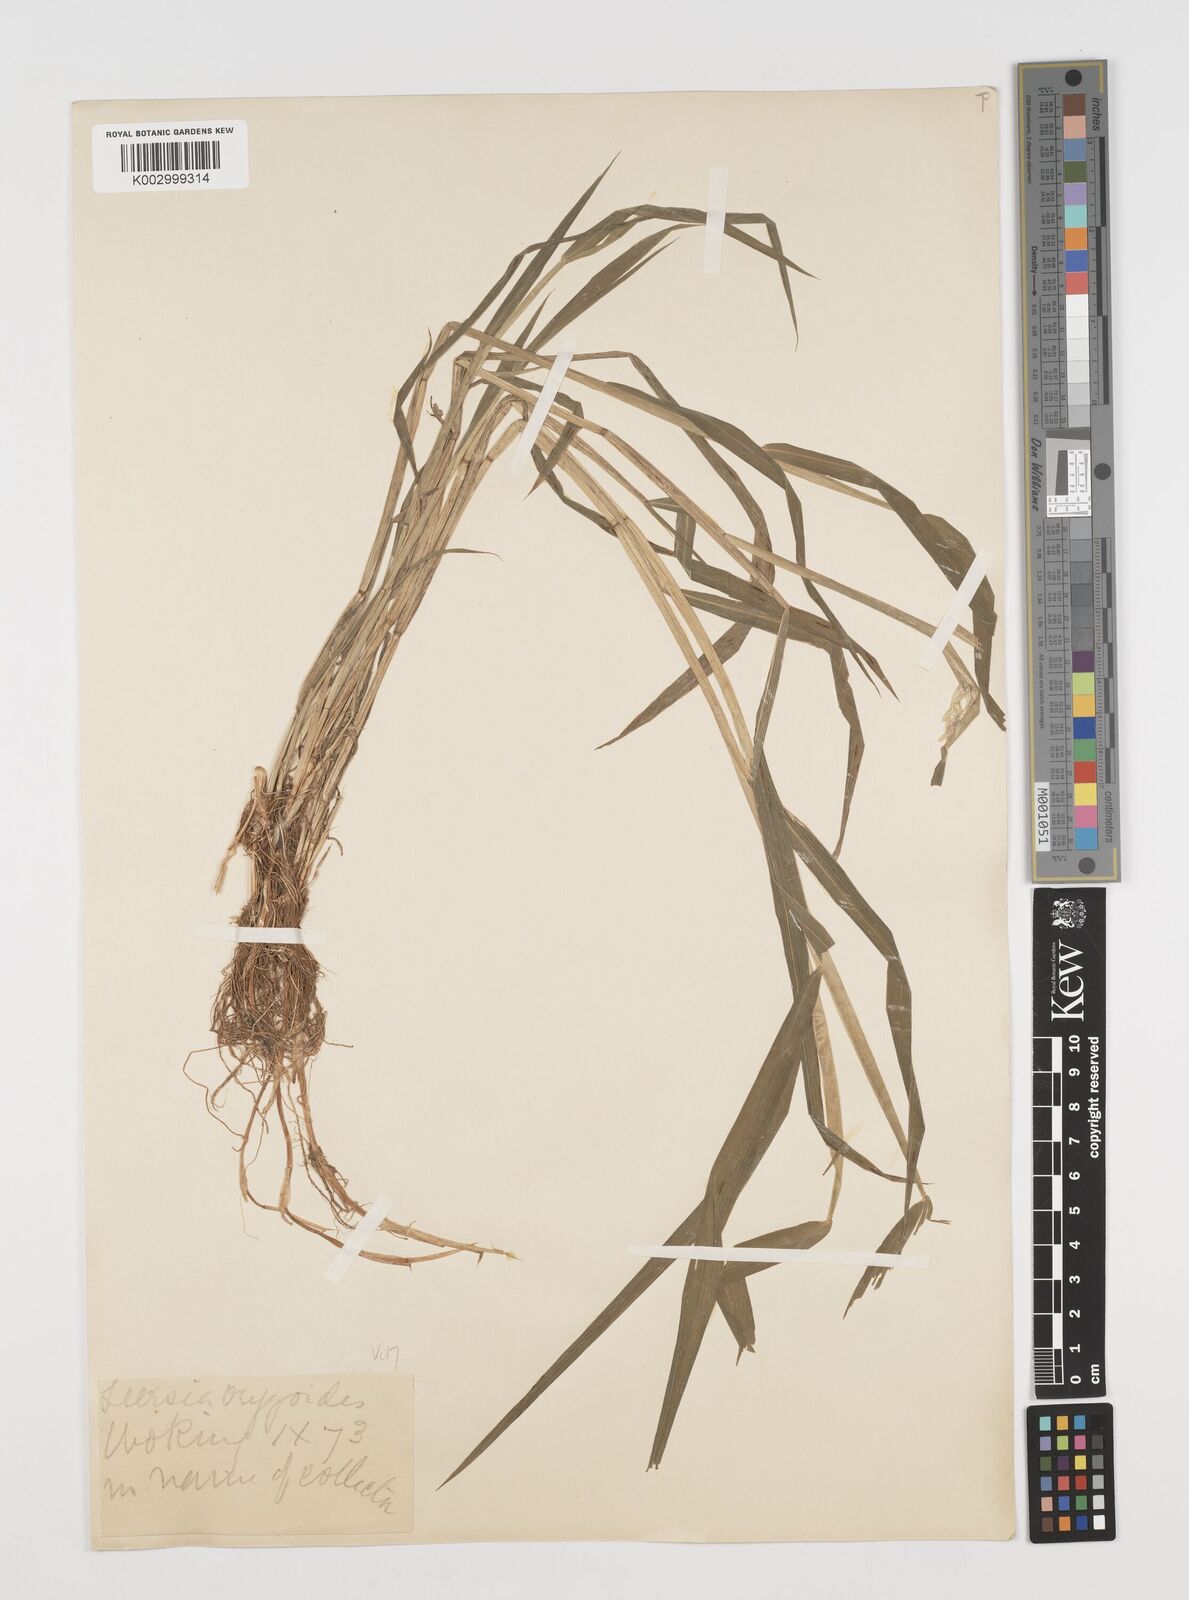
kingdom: Plantae
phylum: Tracheophyta
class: Liliopsida
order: Poales
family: Poaceae
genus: Leersia
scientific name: Leersia oryzoides
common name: Cut-grass
